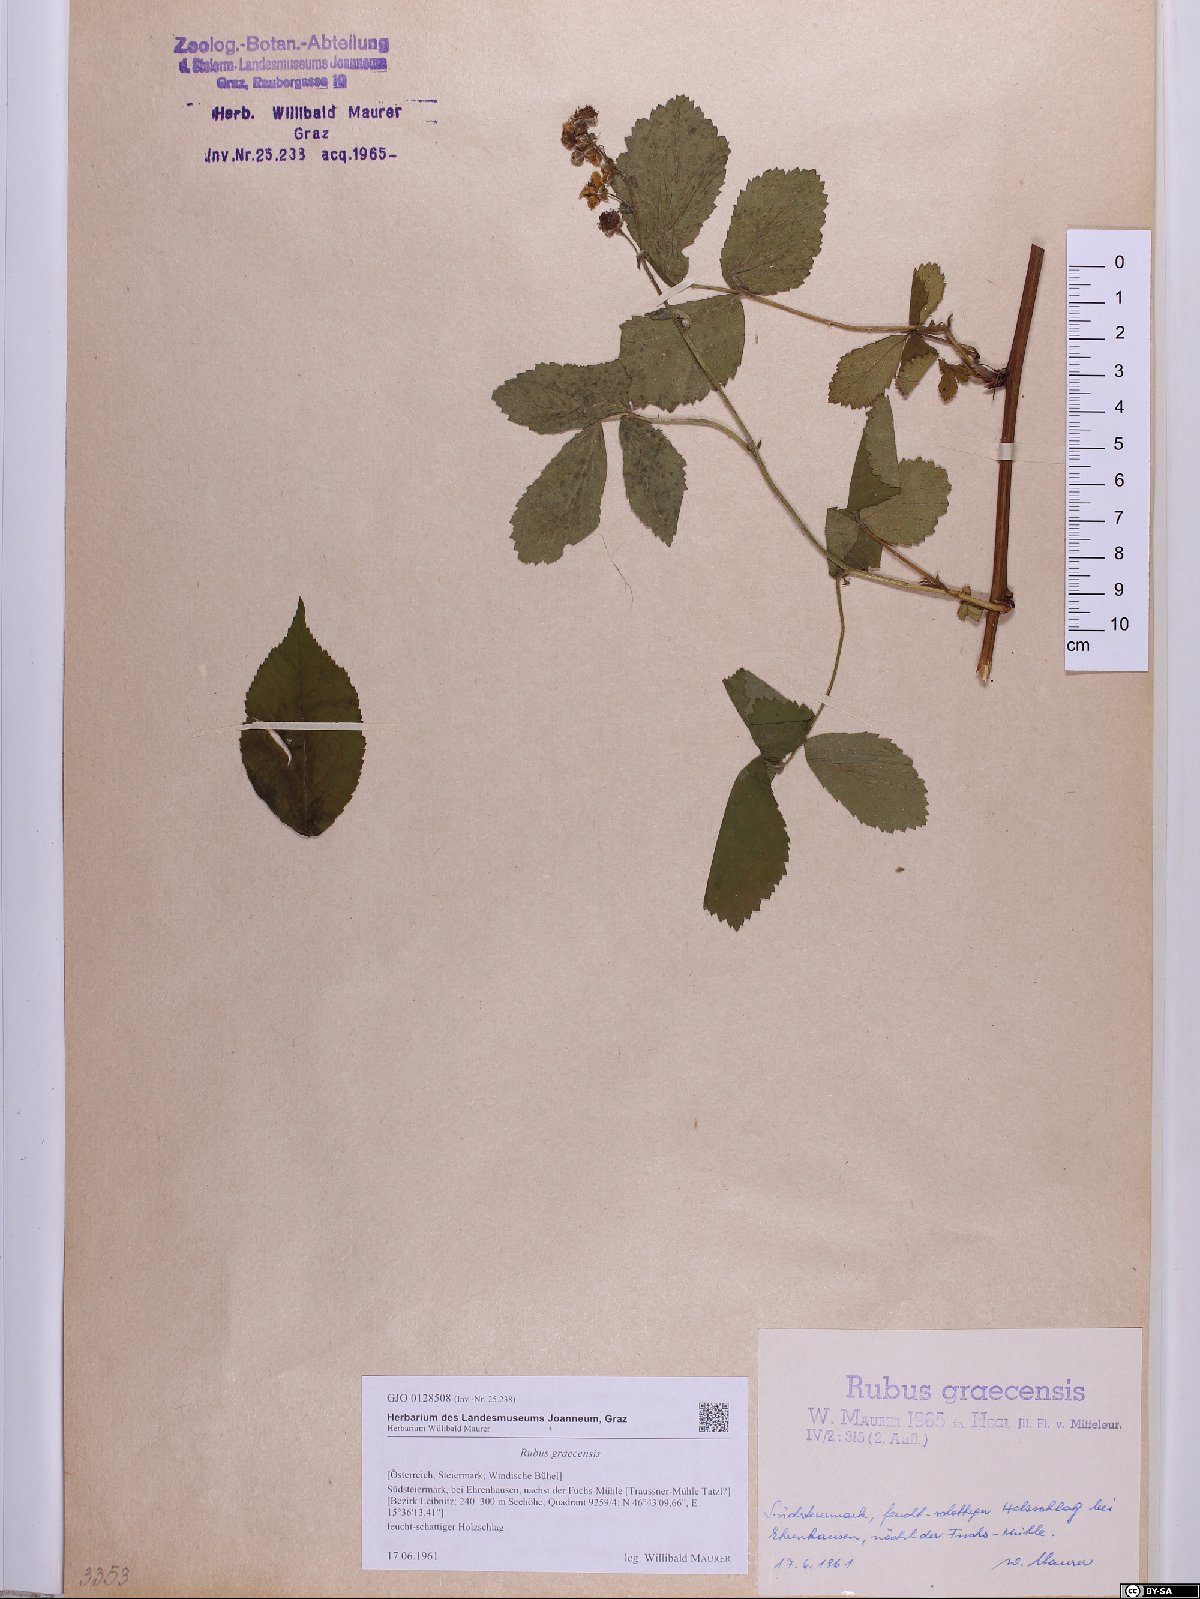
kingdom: Plantae
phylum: Tracheophyta
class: Magnoliopsida
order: Rosales
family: Rosaceae
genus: Rubus
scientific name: Rubus graecensis
